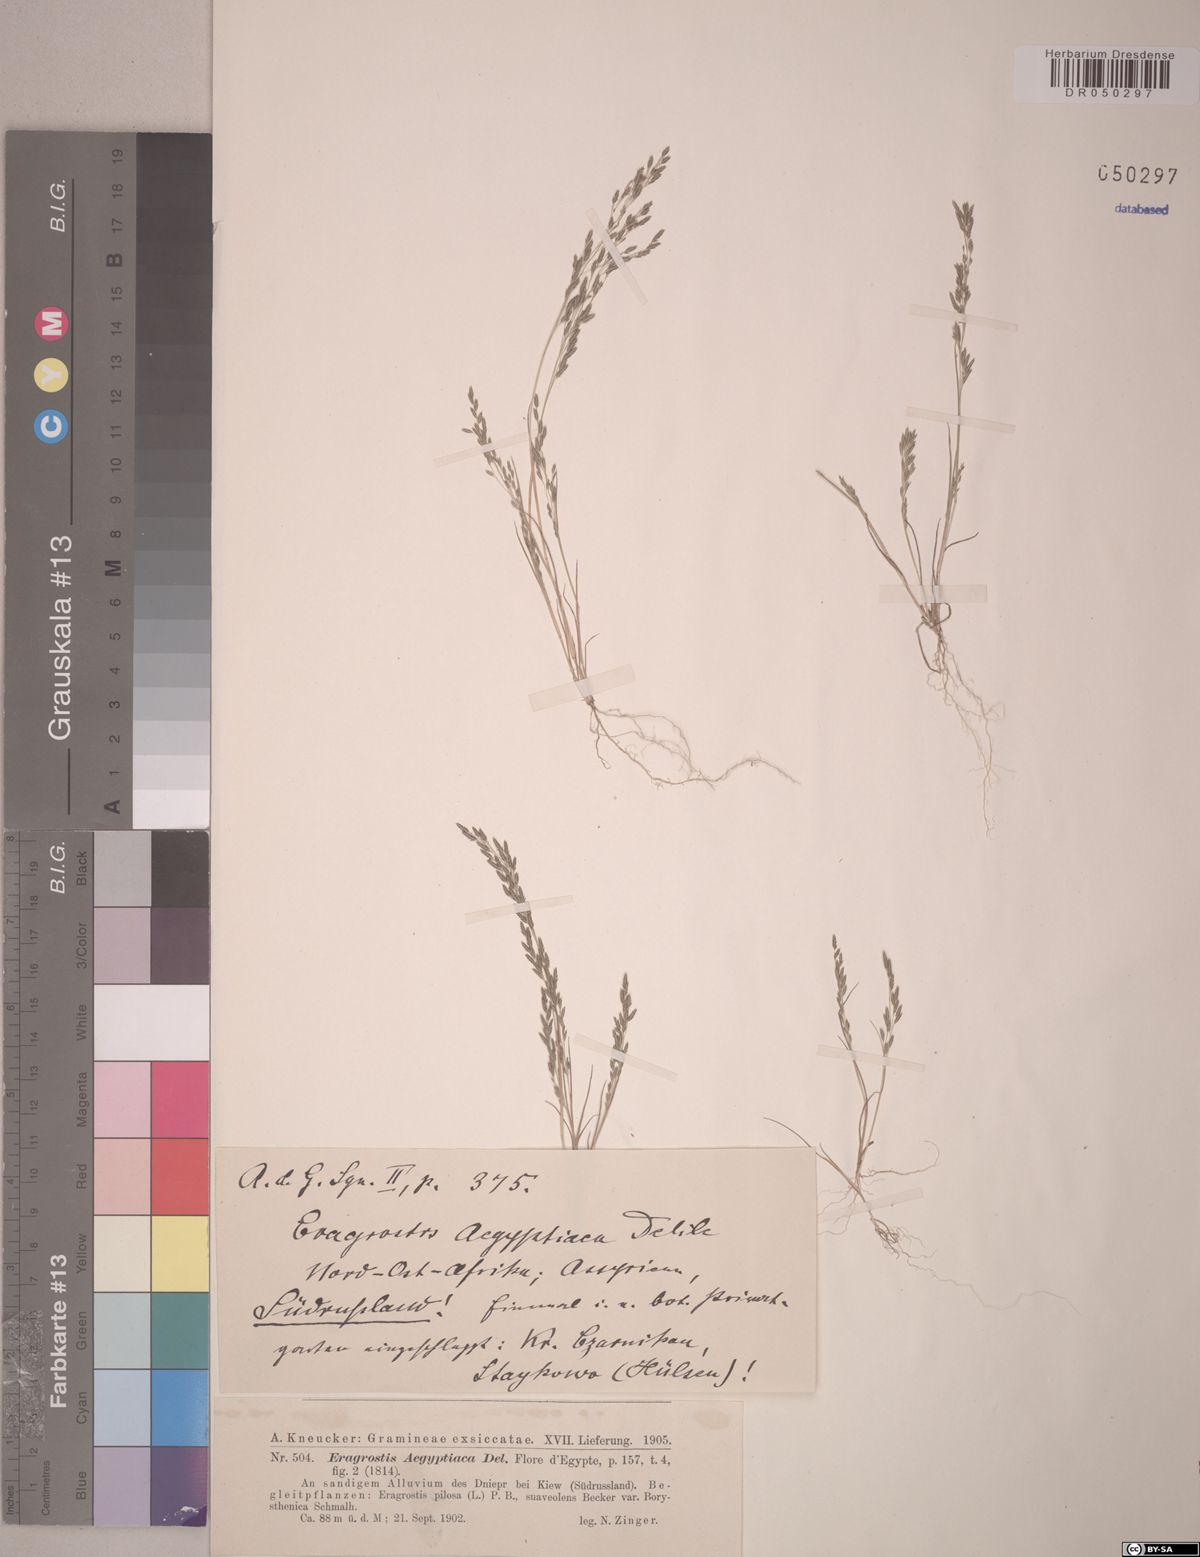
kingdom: Plantae
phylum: Tracheophyta
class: Liliopsida
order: Poales
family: Poaceae
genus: Eragrostis
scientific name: Eragrostis aegyptiaca
